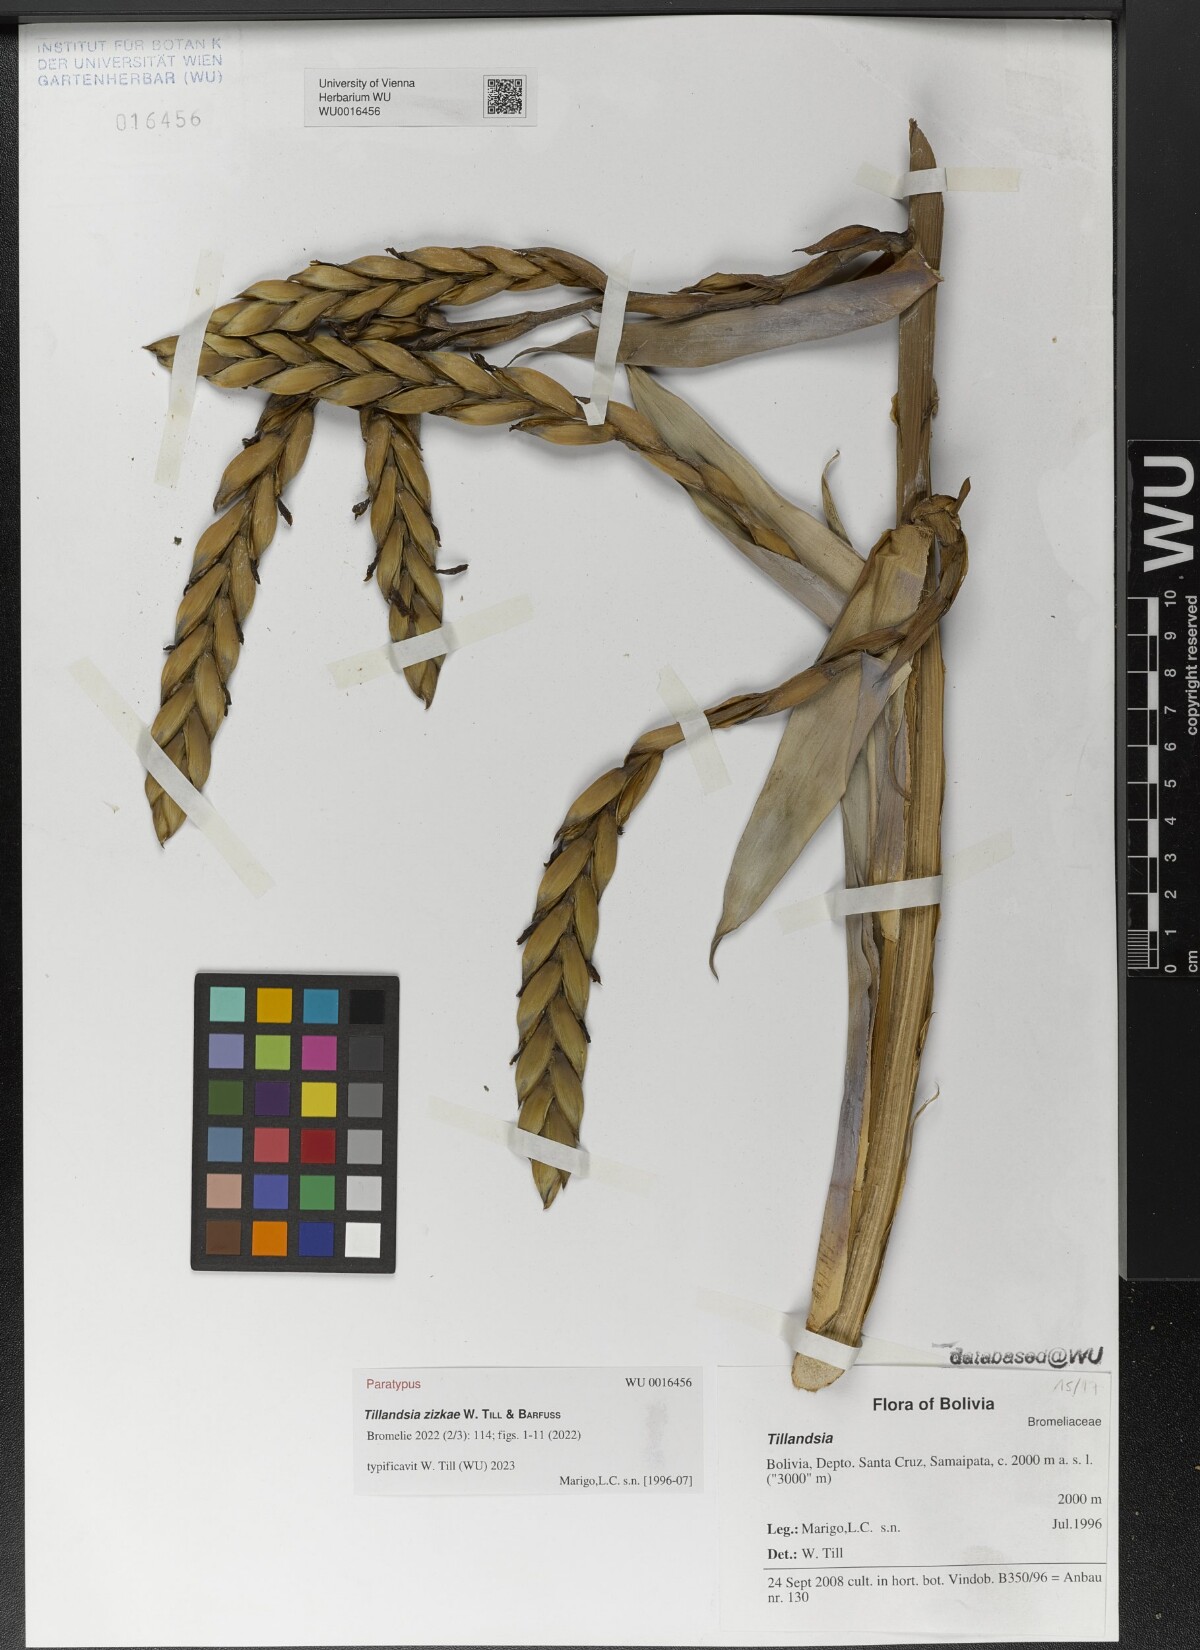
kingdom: Plantae
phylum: Tracheophyta
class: Liliopsida
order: Poales
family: Bromeliaceae
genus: Tillandsia
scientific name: Tillandsia
